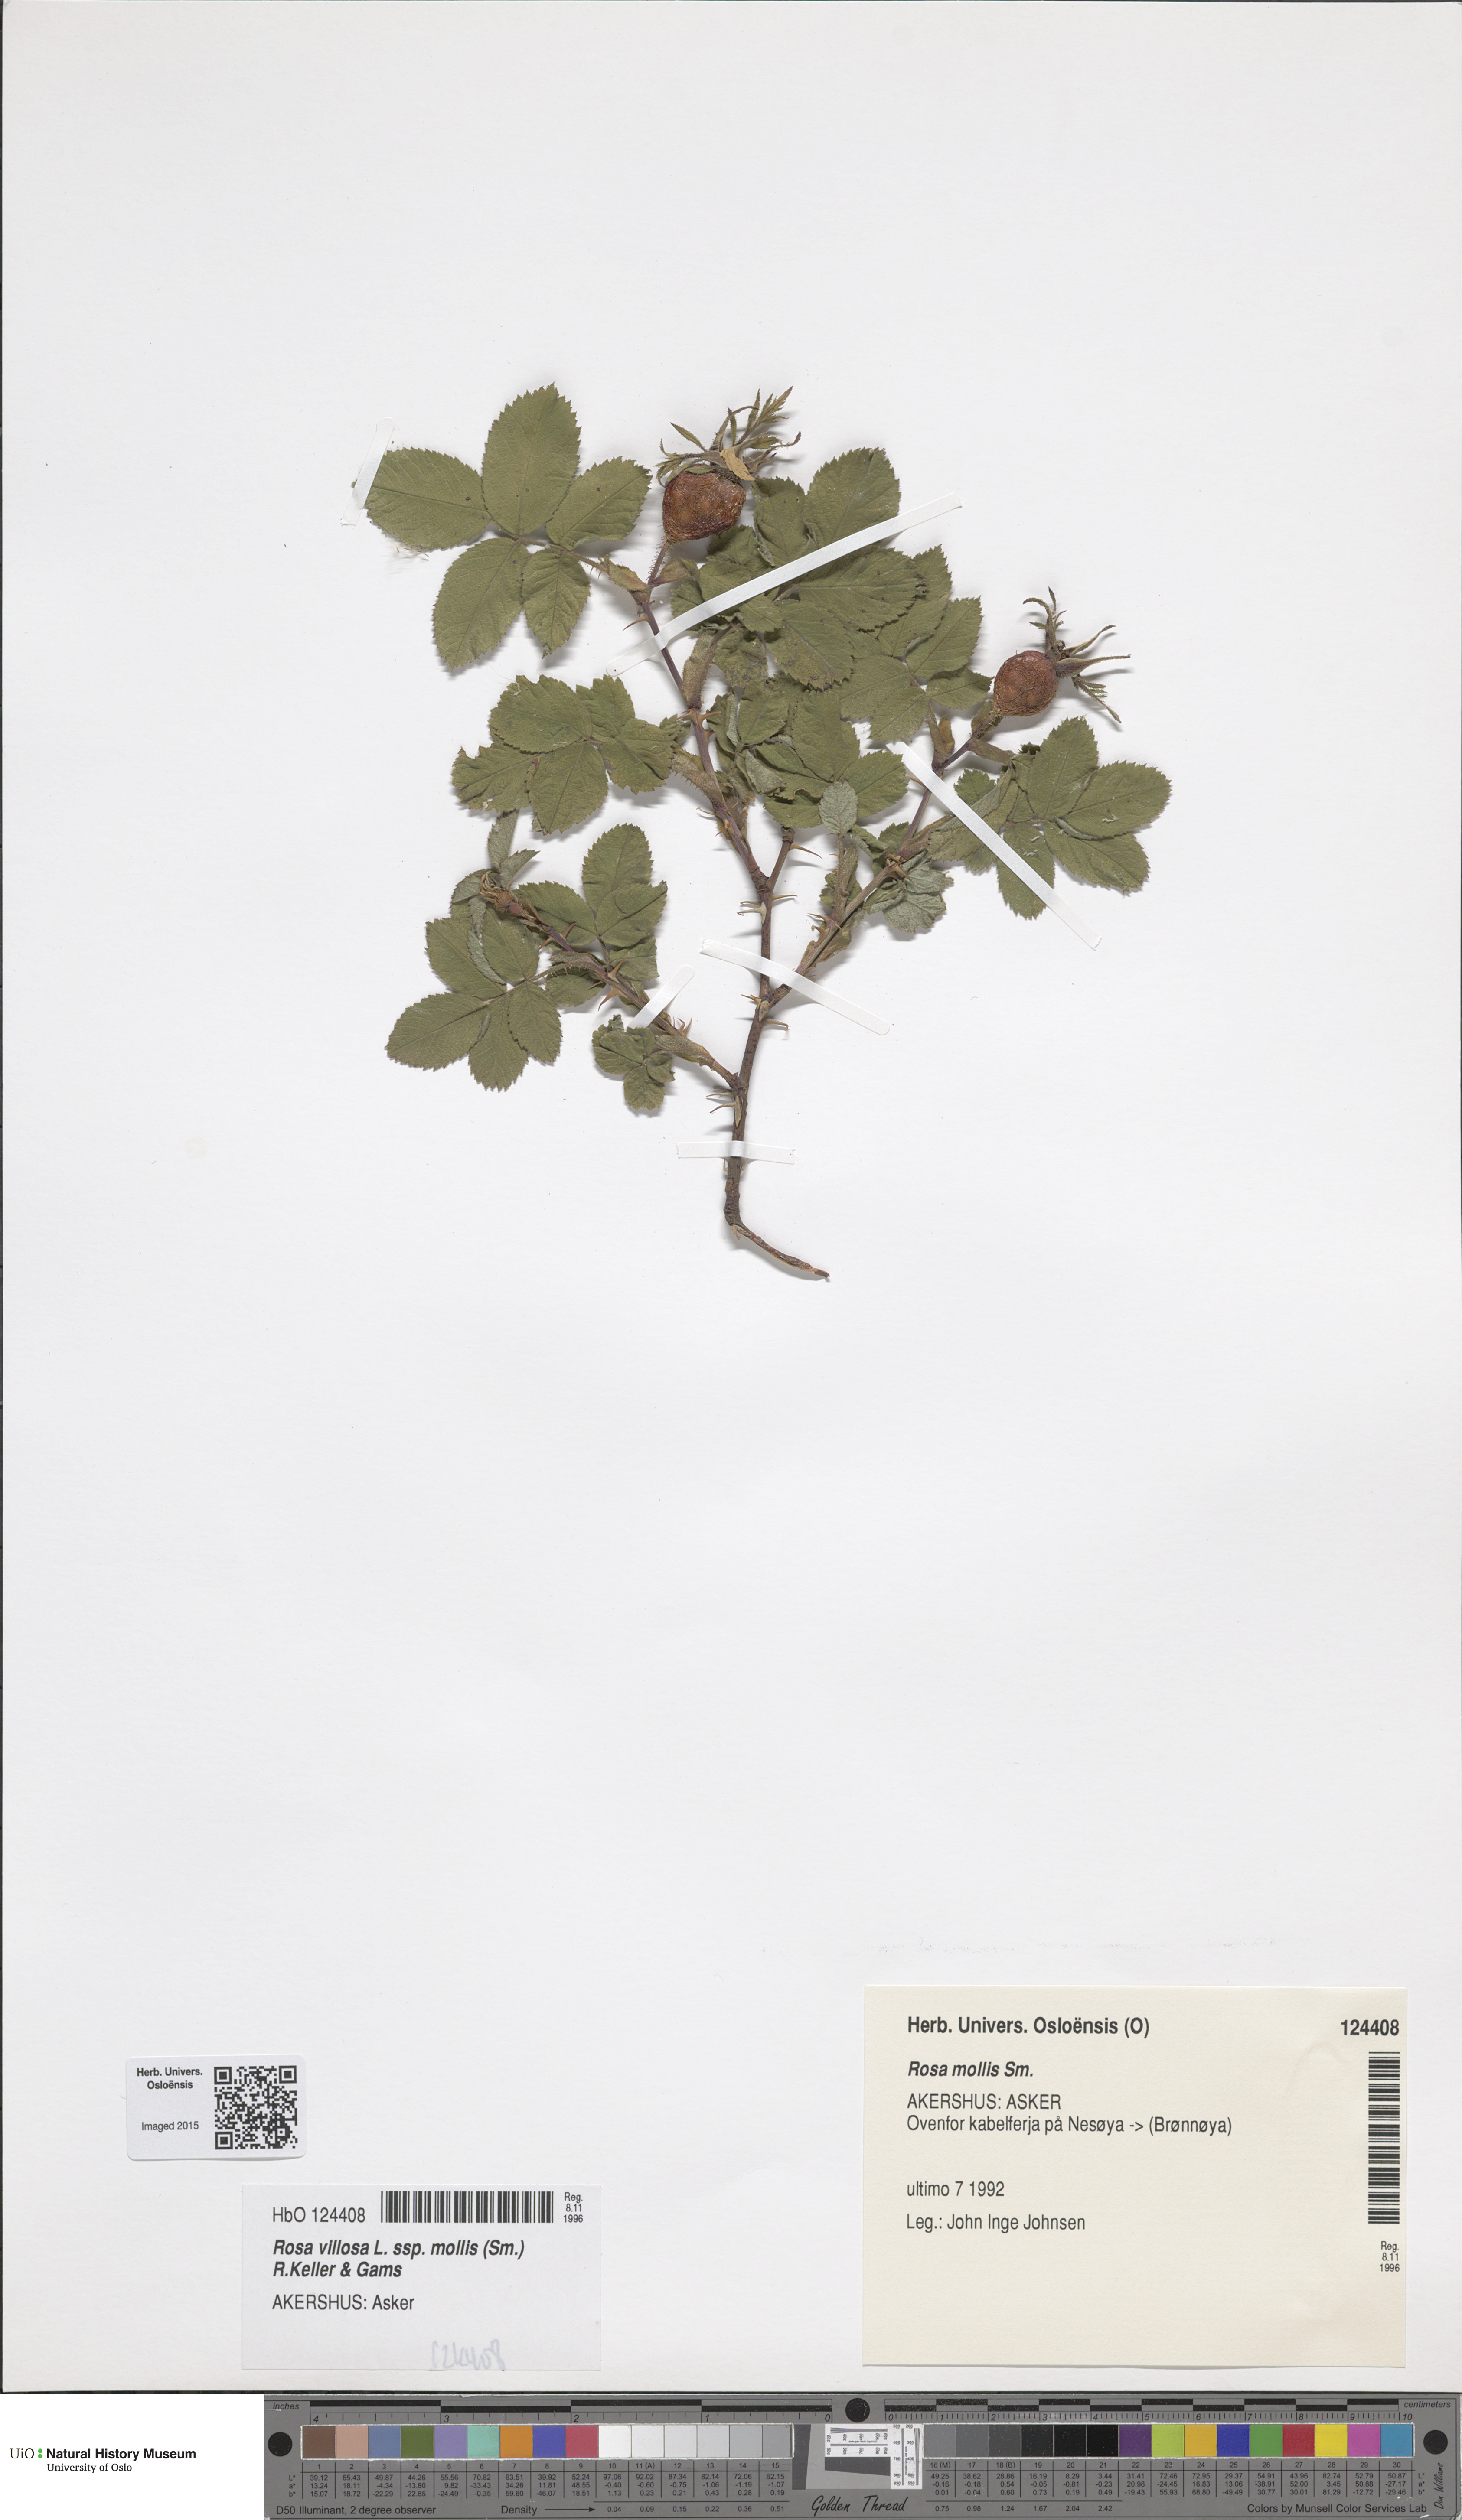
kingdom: Plantae
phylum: Tracheophyta
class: Magnoliopsida
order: Rosales
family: Rosaceae
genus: Rosa
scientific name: Rosa mollis
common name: Rose
